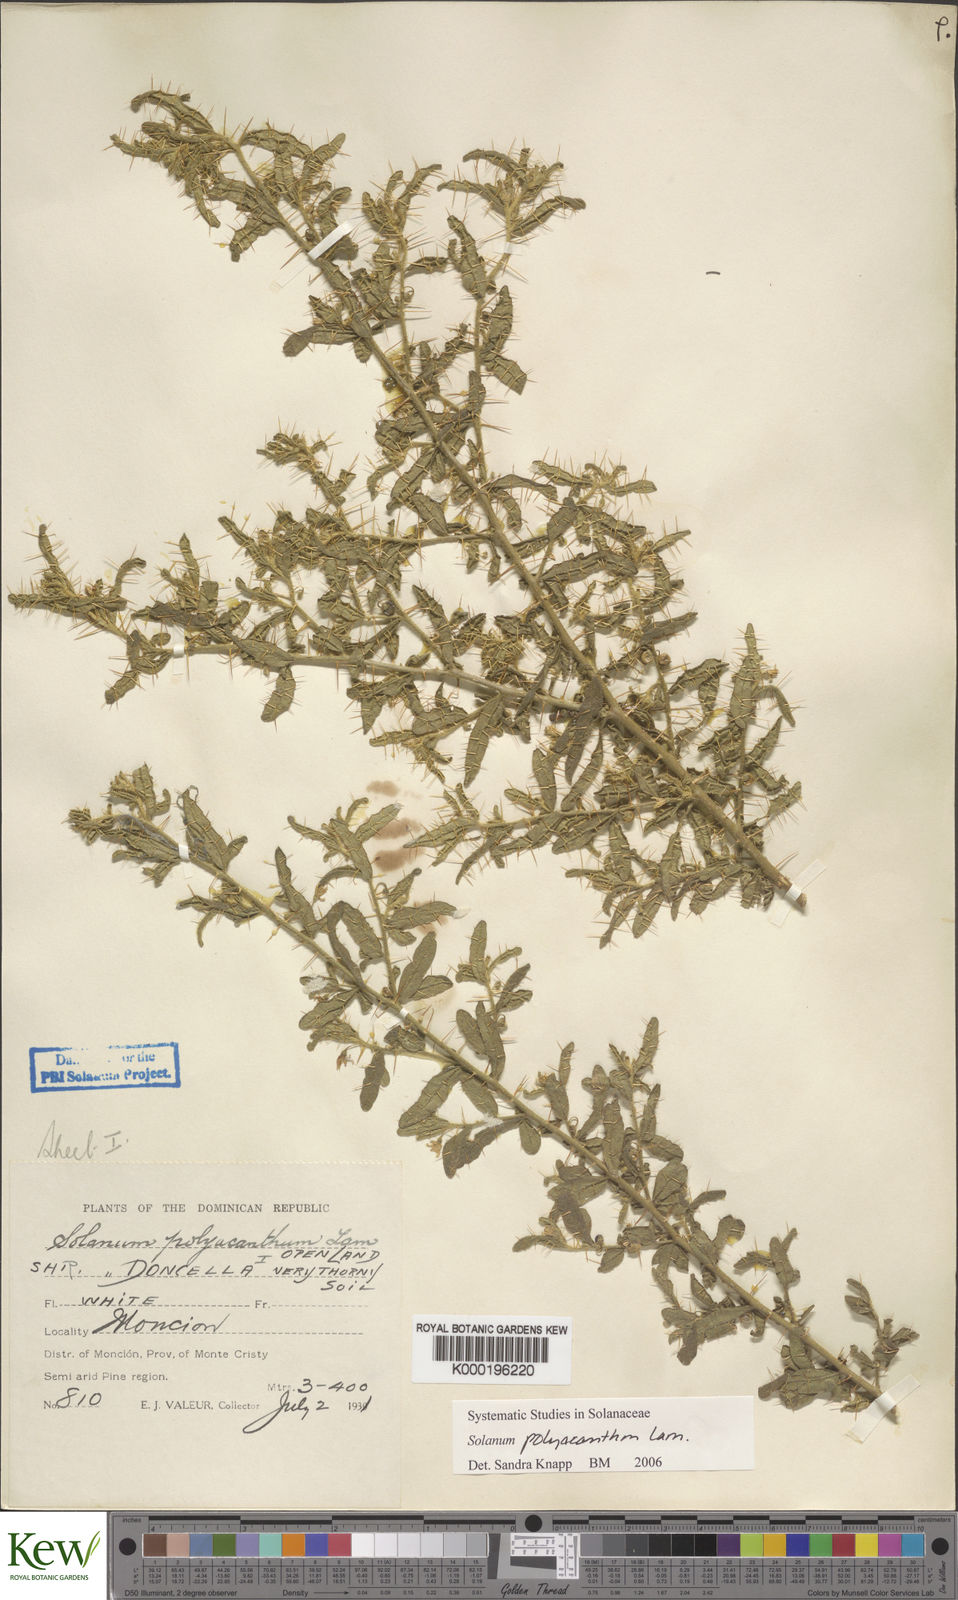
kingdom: Plantae
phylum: Tracheophyta
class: Magnoliopsida
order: Solanales
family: Solanaceae
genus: Solanum
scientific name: Solanum polyacanthos
